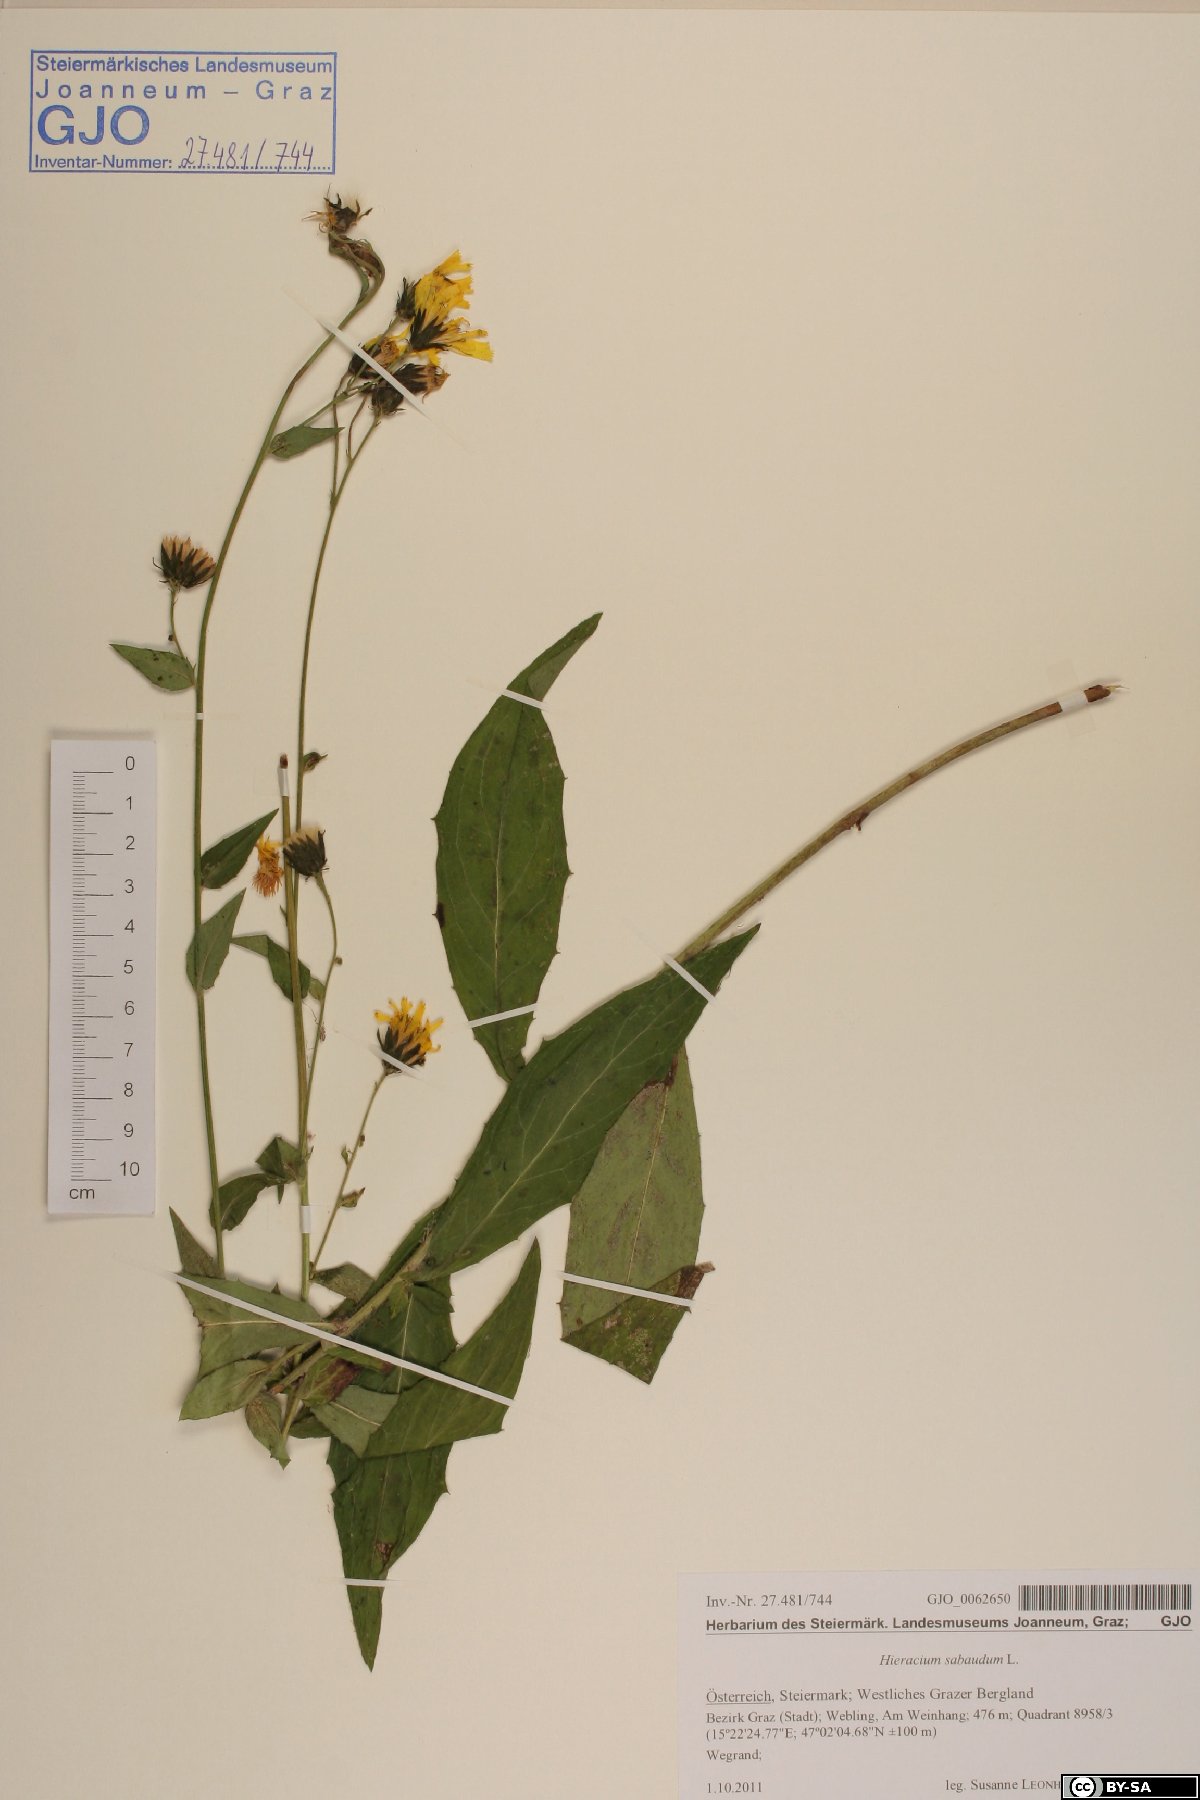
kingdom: Plantae
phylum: Tracheophyta
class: Magnoliopsida
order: Asterales
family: Asteraceae
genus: Hieracium
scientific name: Hieracium sabaudum
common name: New england hawkweed
